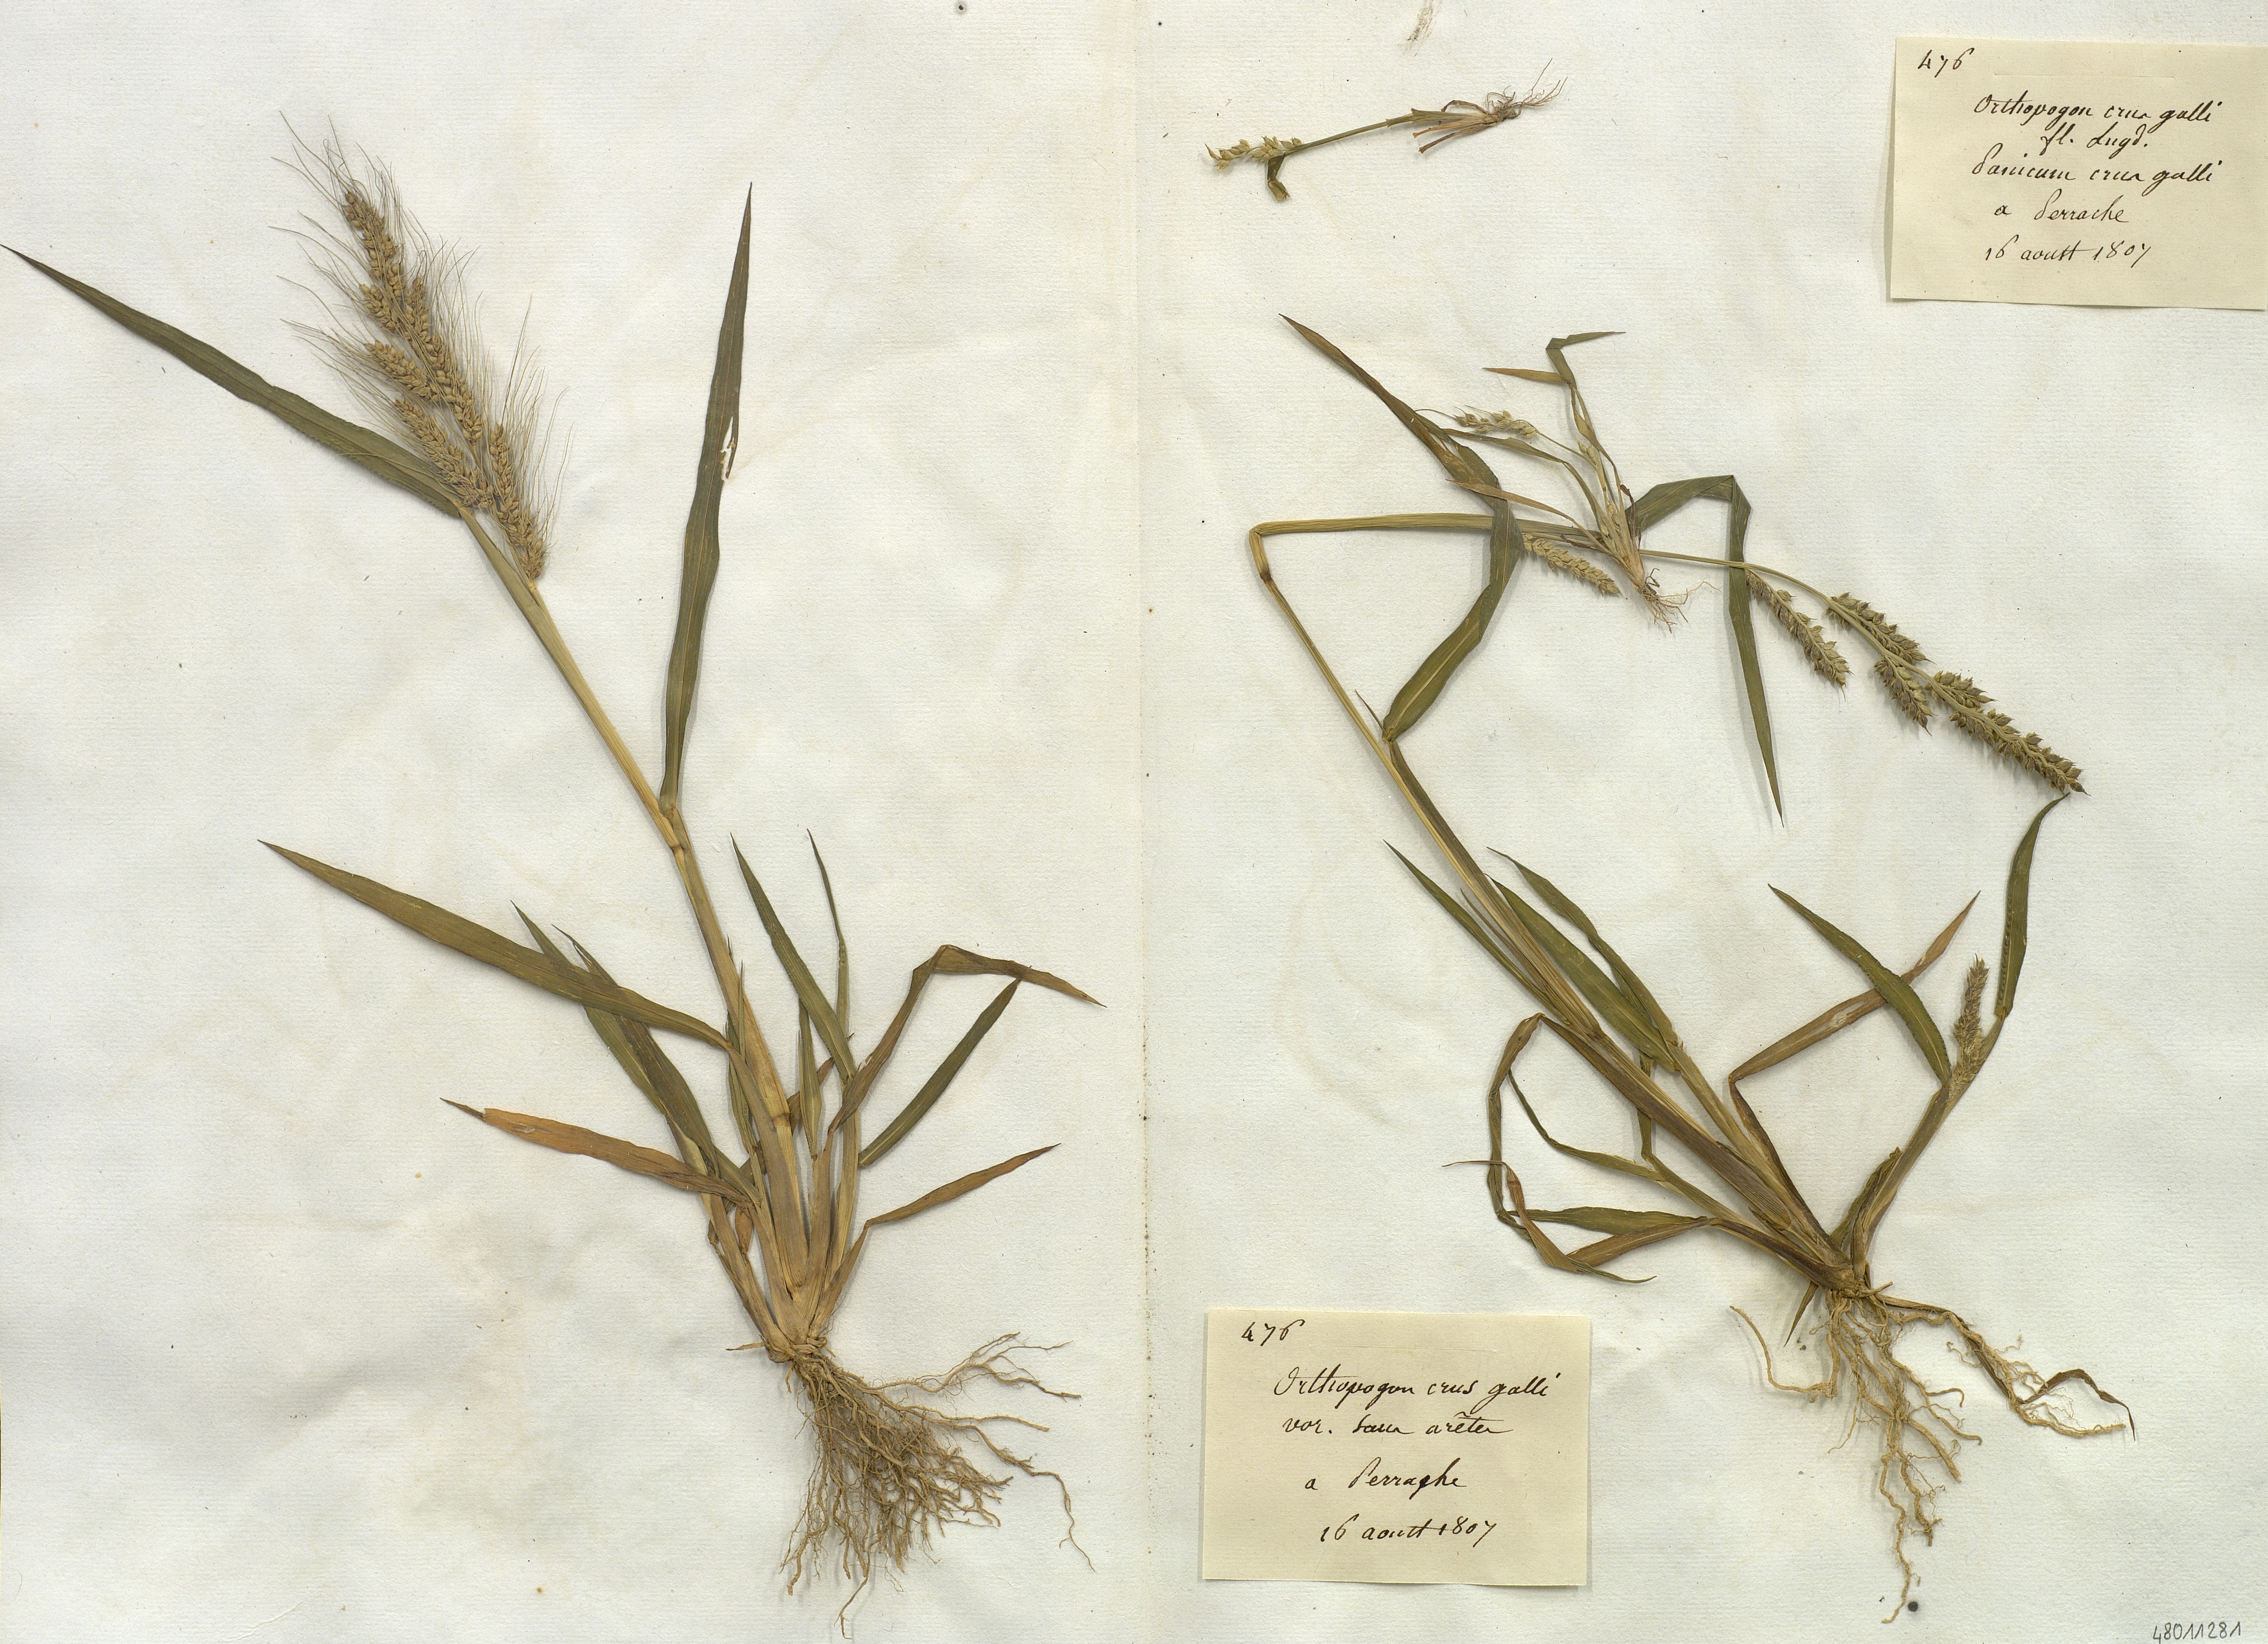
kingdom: Plantae
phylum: Tracheophyta
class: Liliopsida
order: Poales
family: Poaceae
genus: Echinochloa
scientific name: Echinochloa crus-galli
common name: Cockspur
